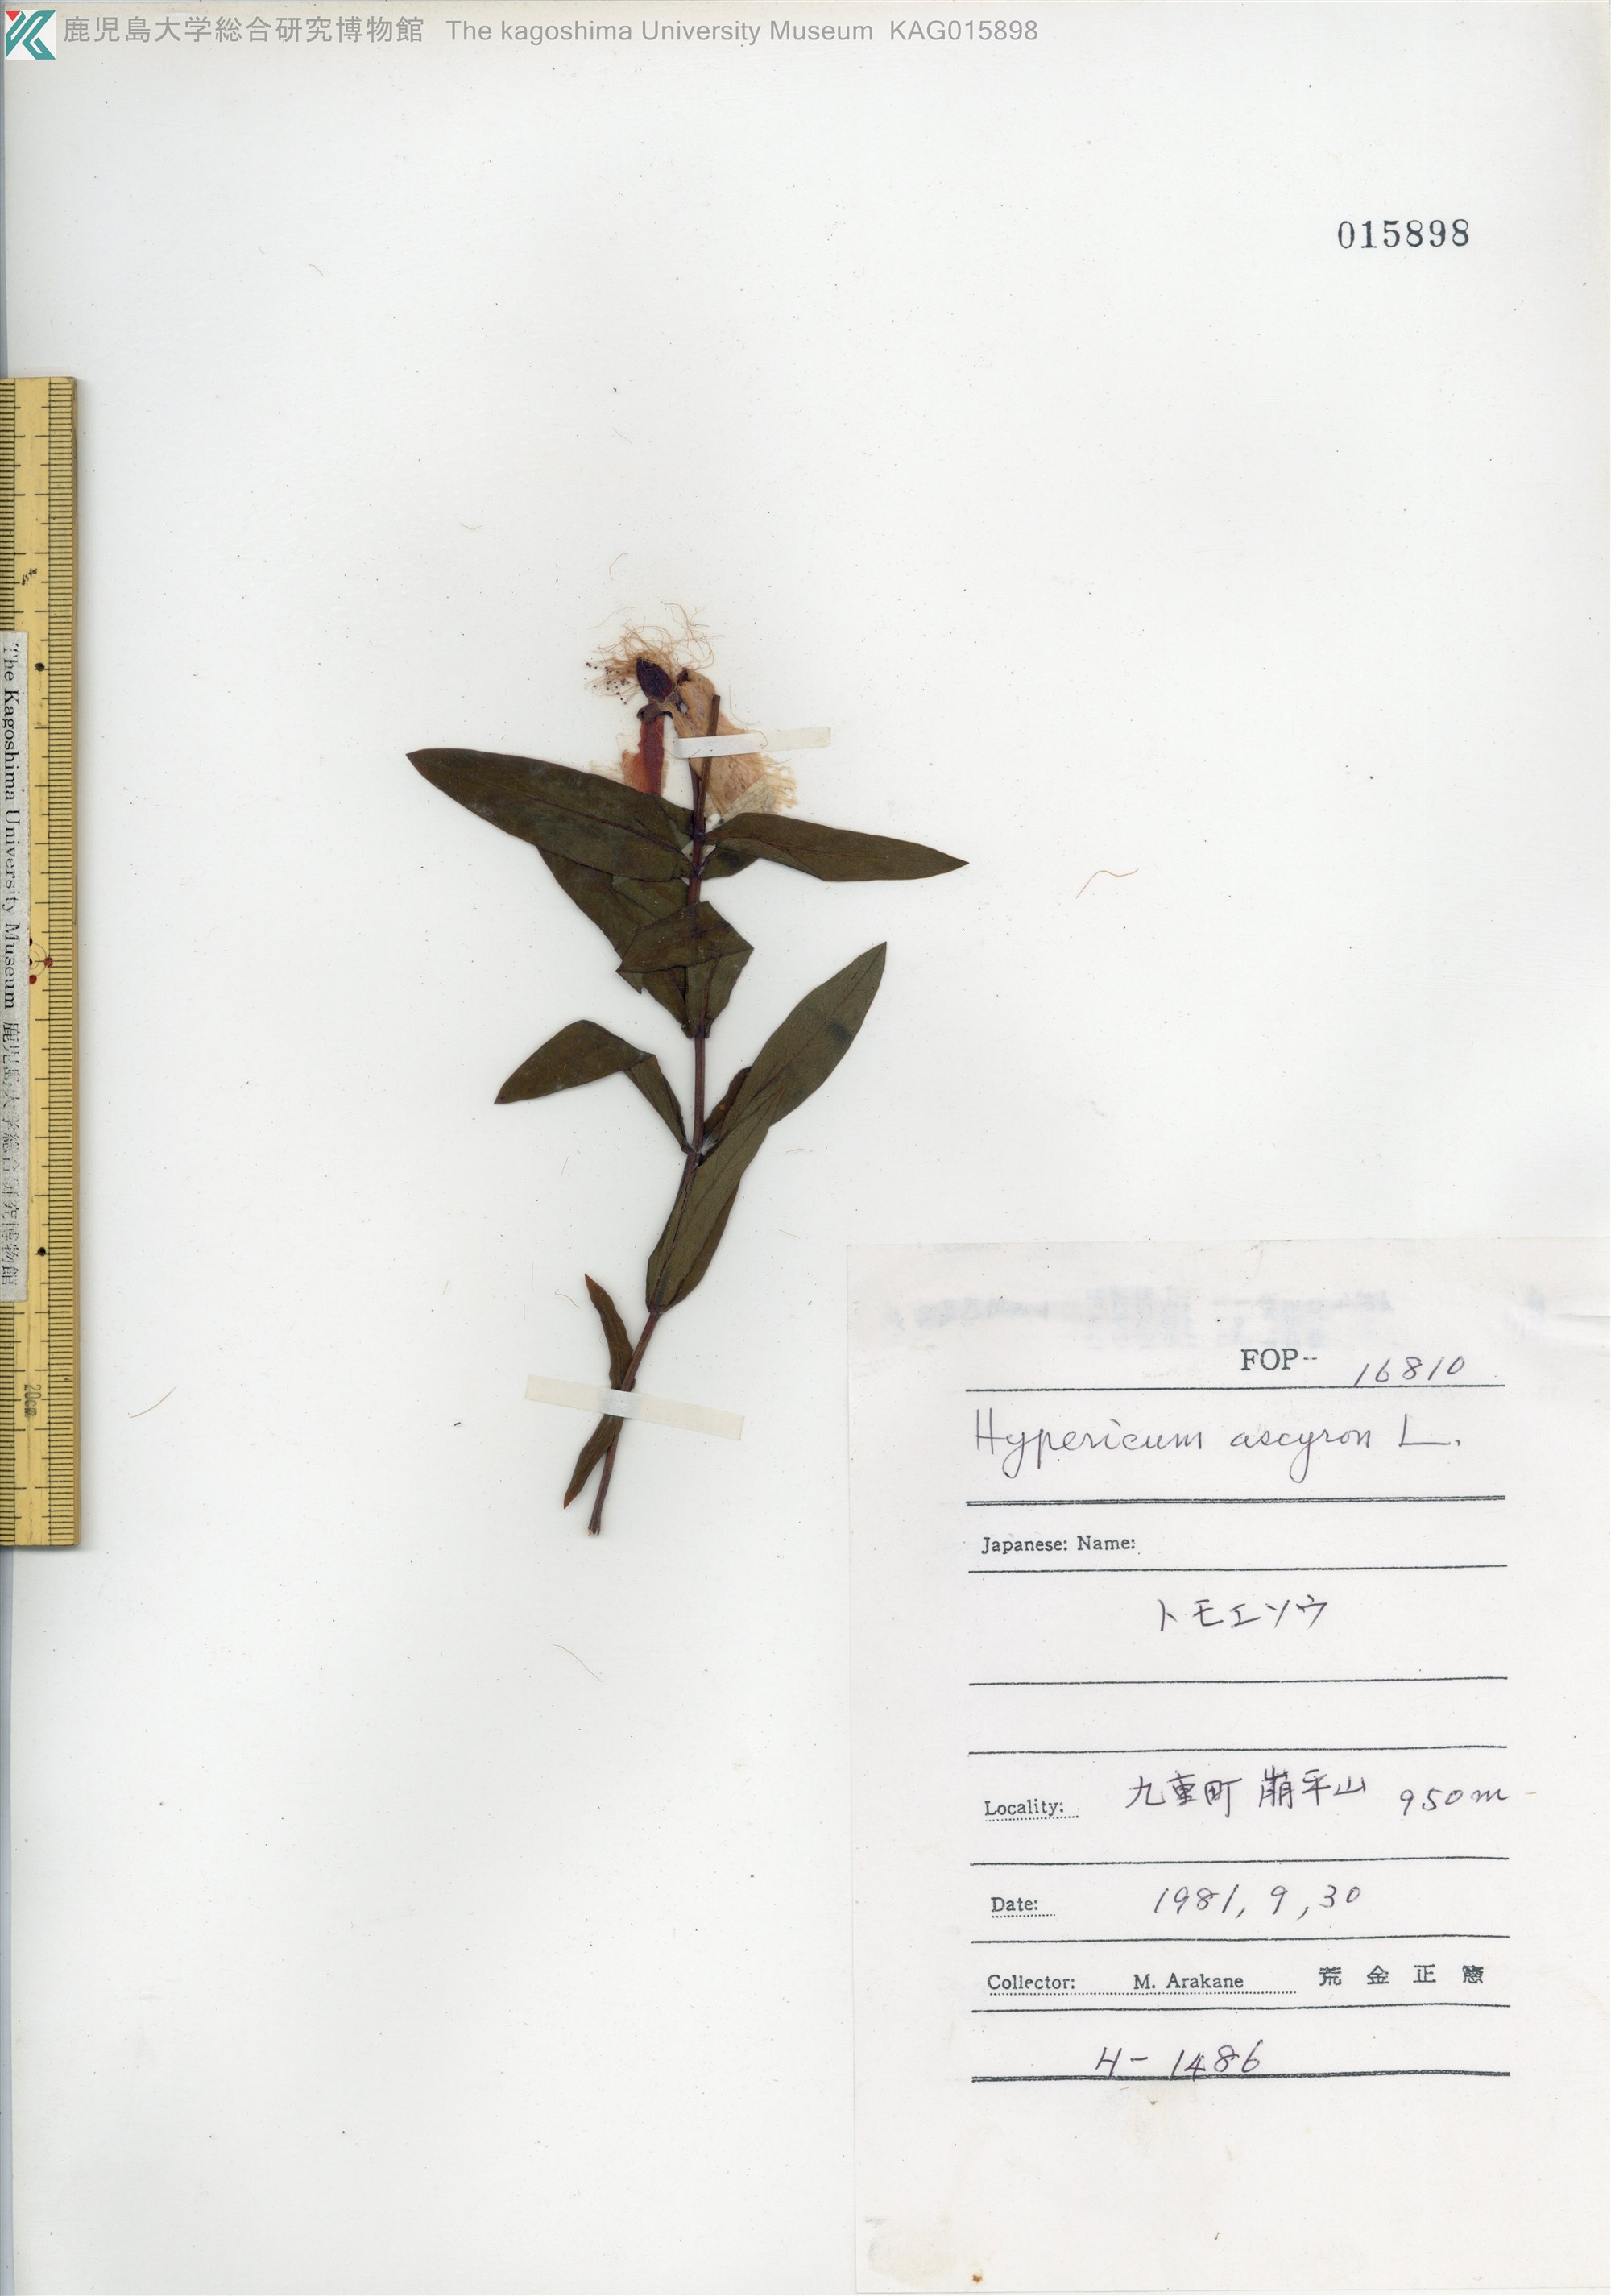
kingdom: Plantae
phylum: Tracheophyta
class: Magnoliopsida
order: Malpighiales
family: Hypericaceae
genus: Hypericum
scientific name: Hypericum ascyron
